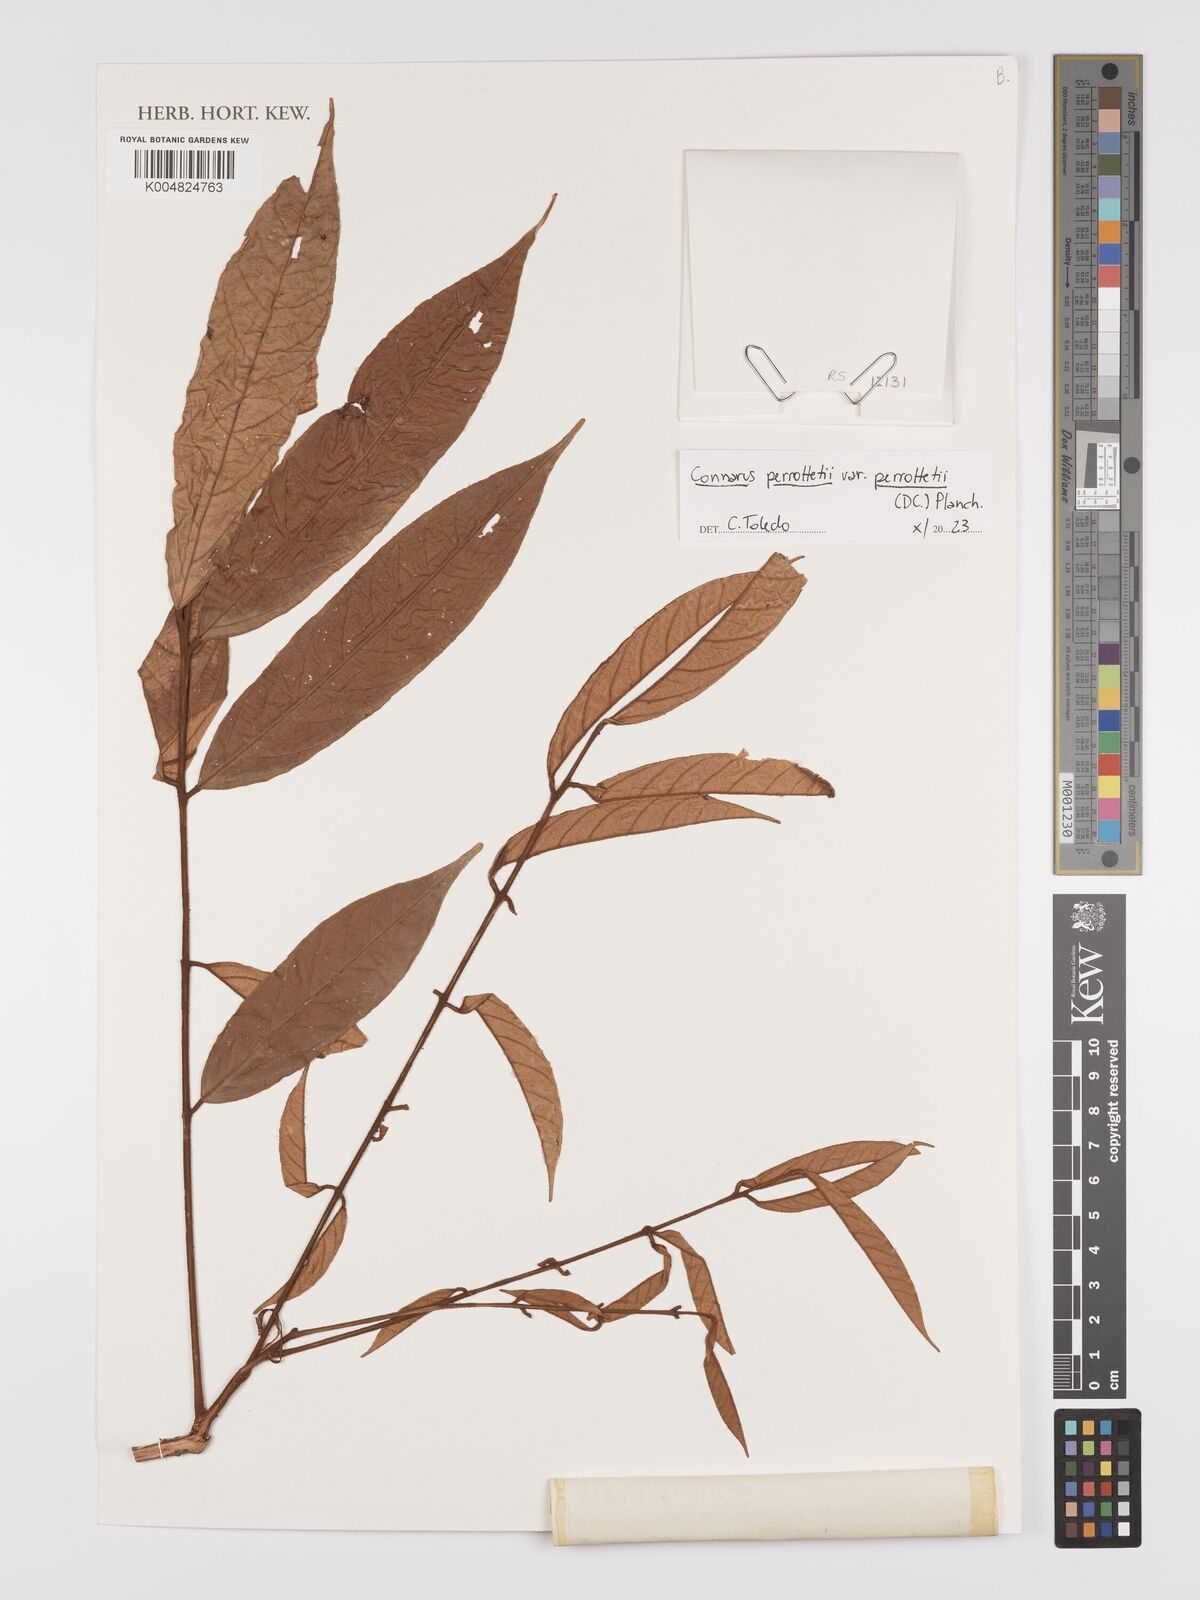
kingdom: Plantae
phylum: Tracheophyta
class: Magnoliopsida
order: Oxalidales
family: Connaraceae
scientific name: Connaraceae
